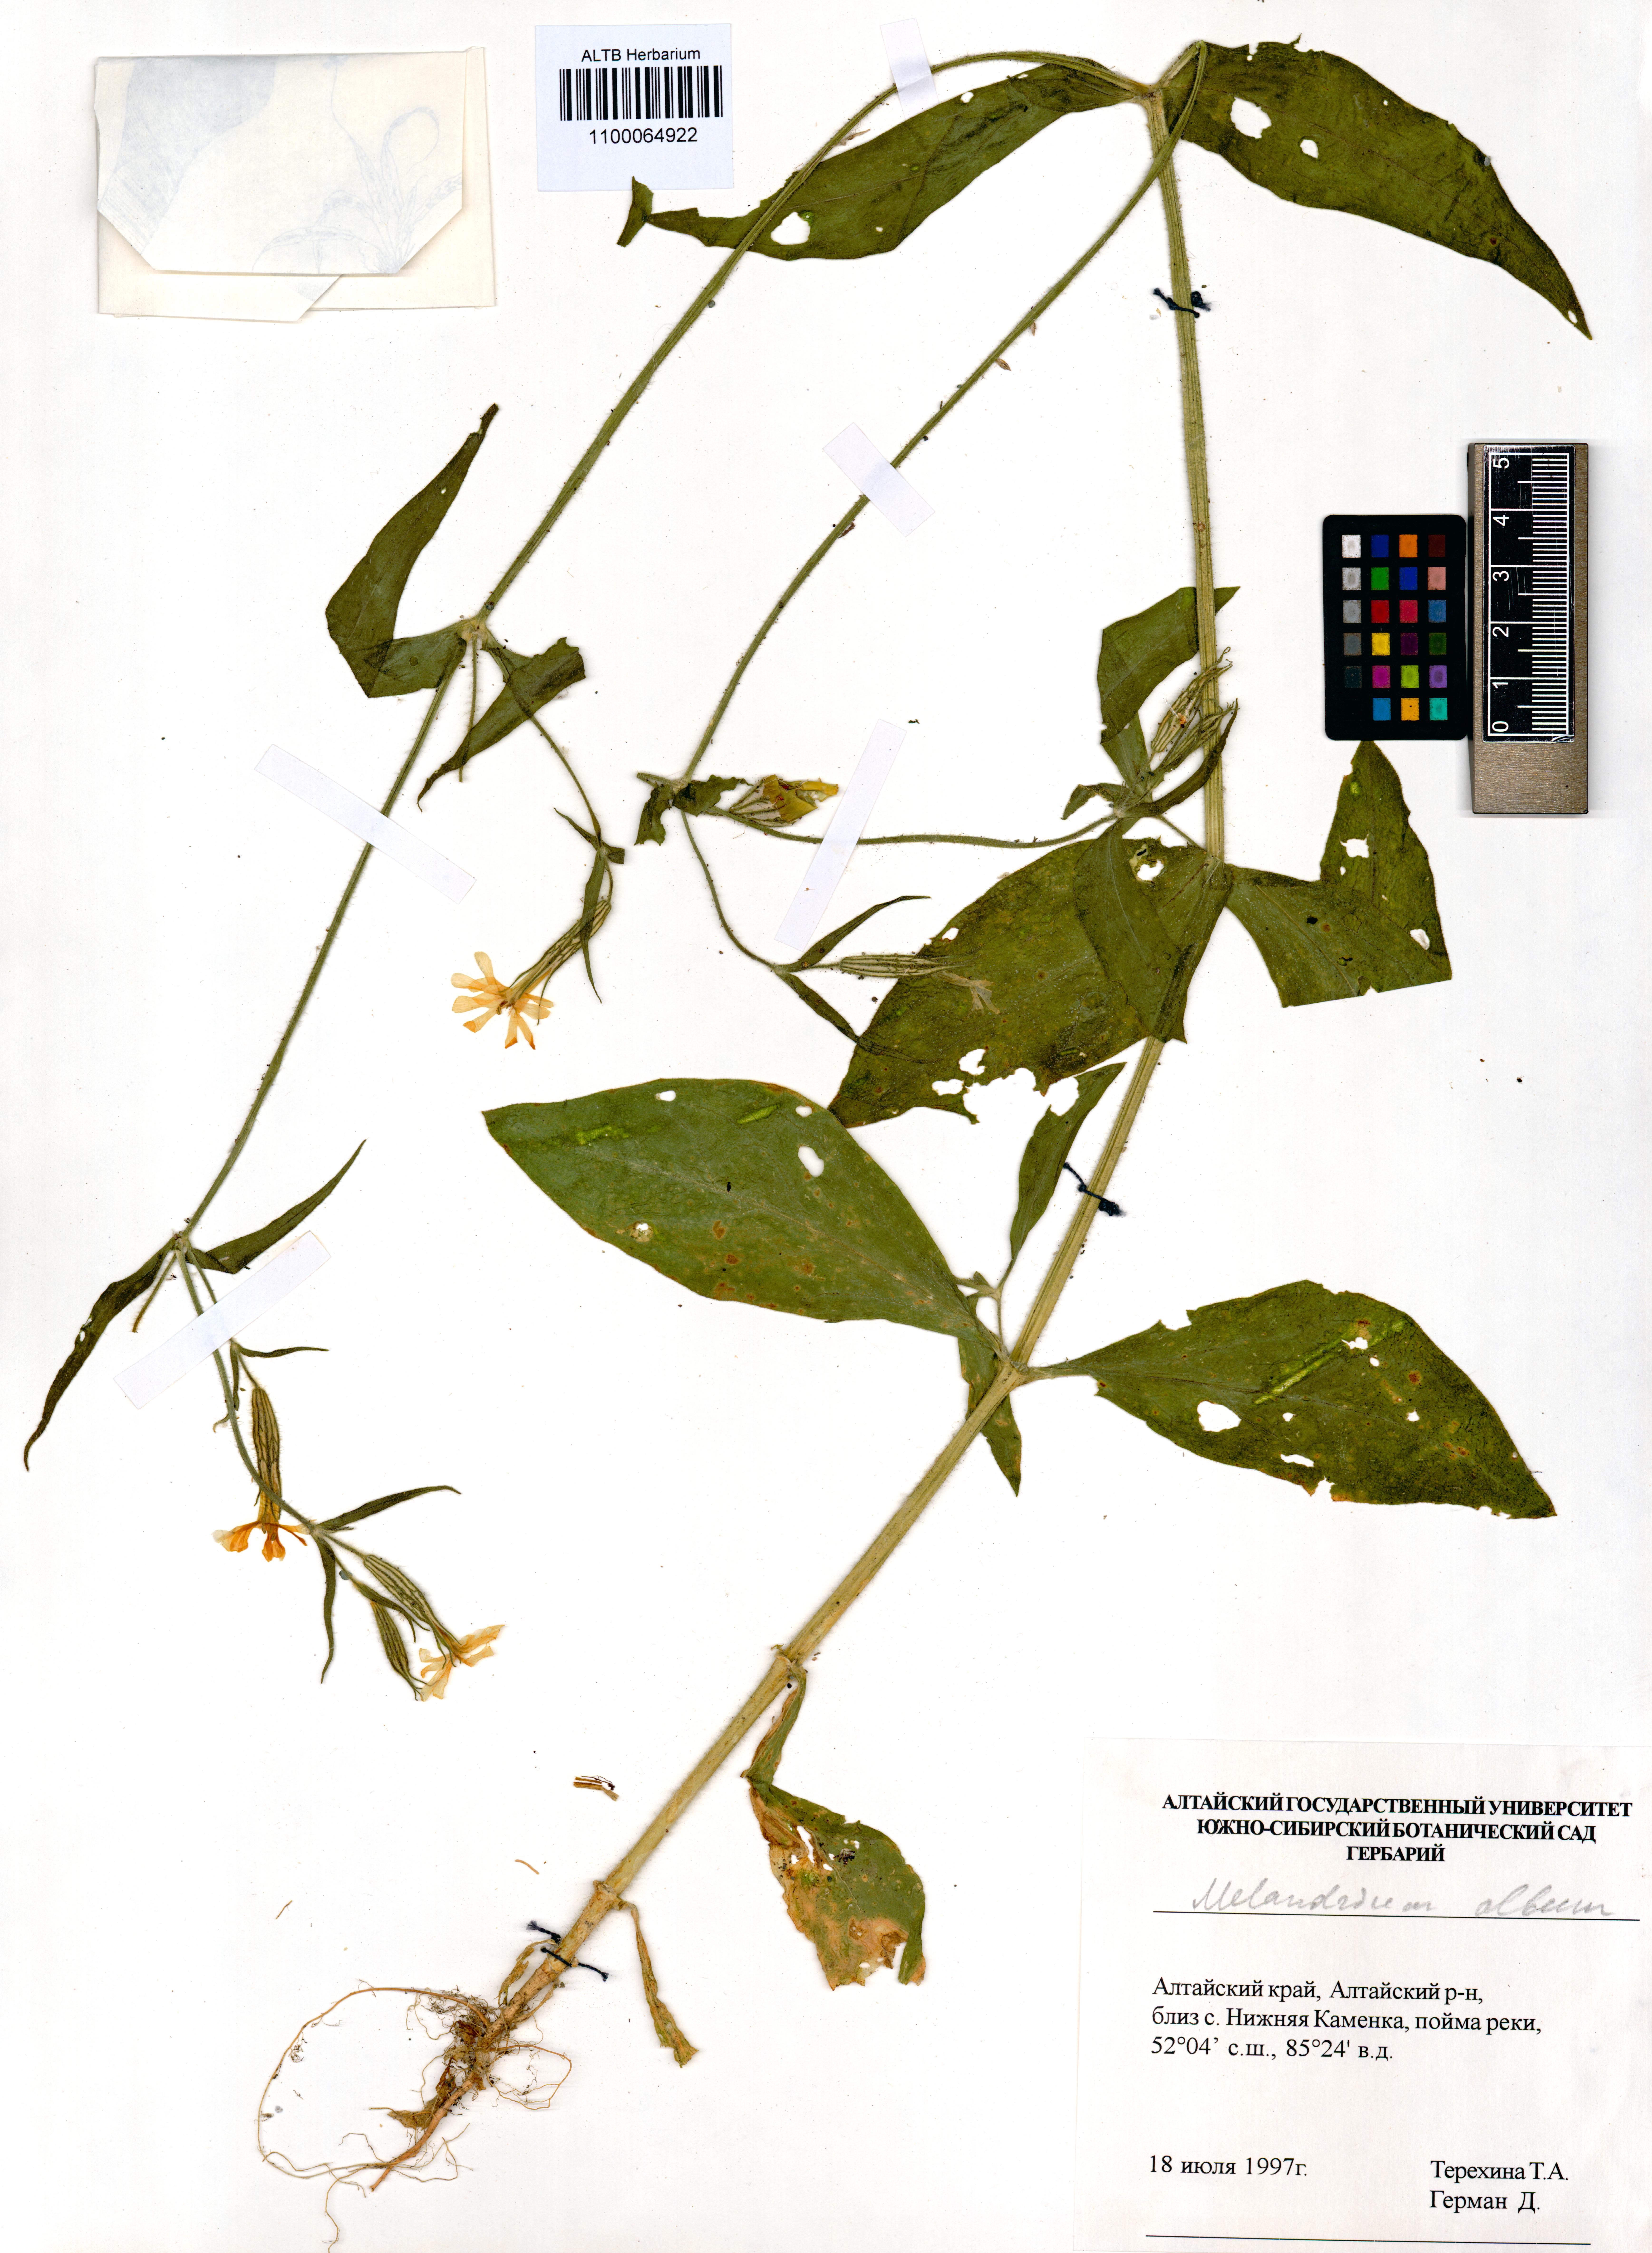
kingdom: Plantae
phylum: Tracheophyta
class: Magnoliopsida
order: Caryophyllales
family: Caryophyllaceae
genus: Silene
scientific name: Silene latifolia
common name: White campion
